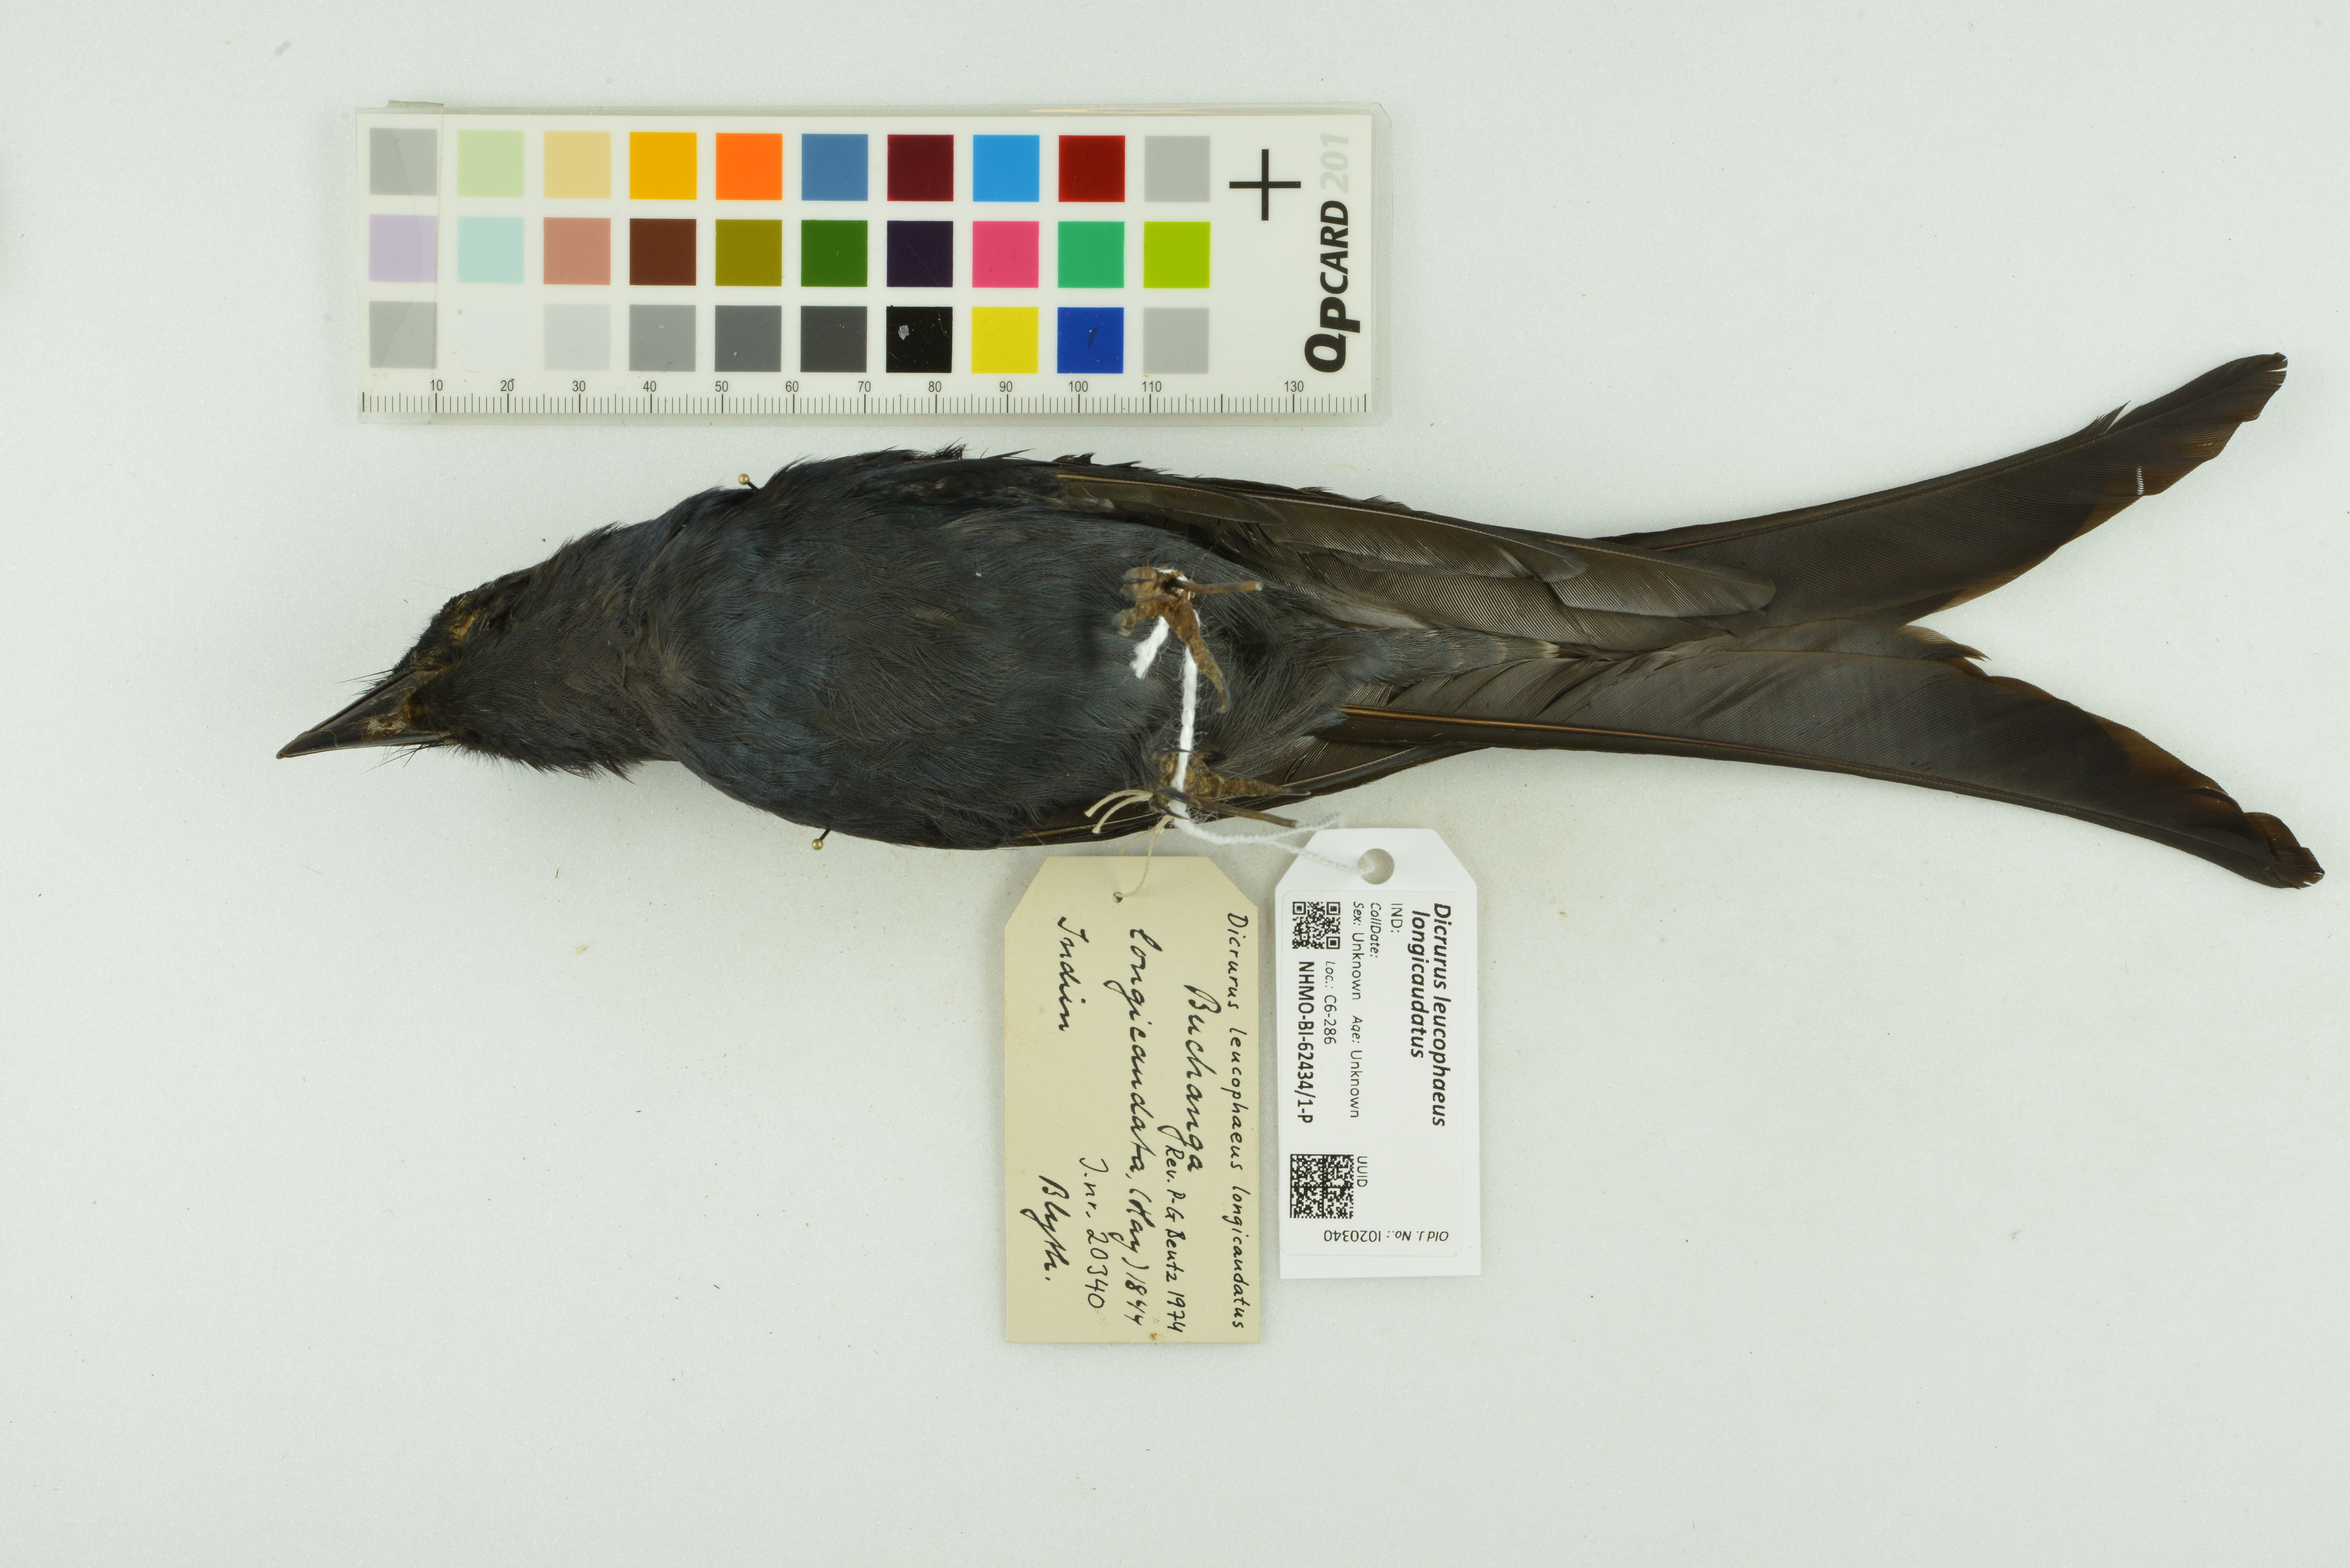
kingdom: Animalia
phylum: Chordata
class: Aves
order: Passeriformes
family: Dicruridae
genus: Dicrurus
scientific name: Dicrurus leucophaeus
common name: Ashy drongo
